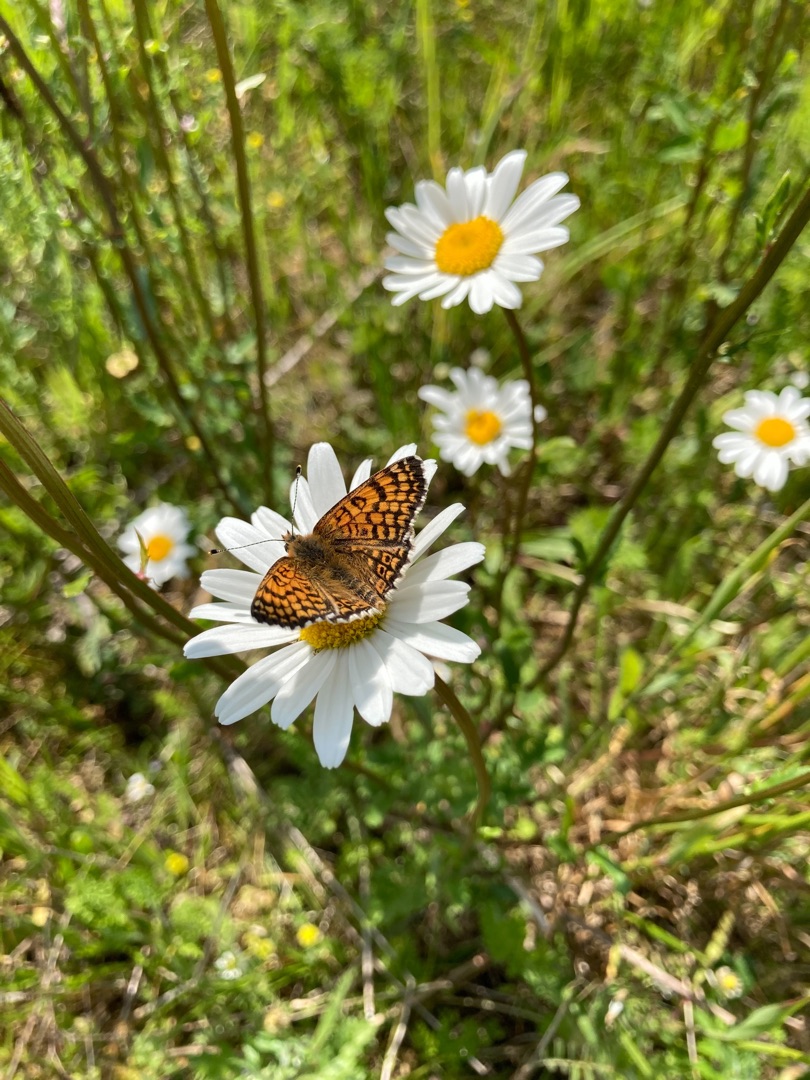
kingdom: Animalia
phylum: Arthropoda
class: Insecta
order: Lepidoptera
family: Nymphalidae
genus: Melitaea
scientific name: Melitaea cinxia
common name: Okkergul pletvinge
